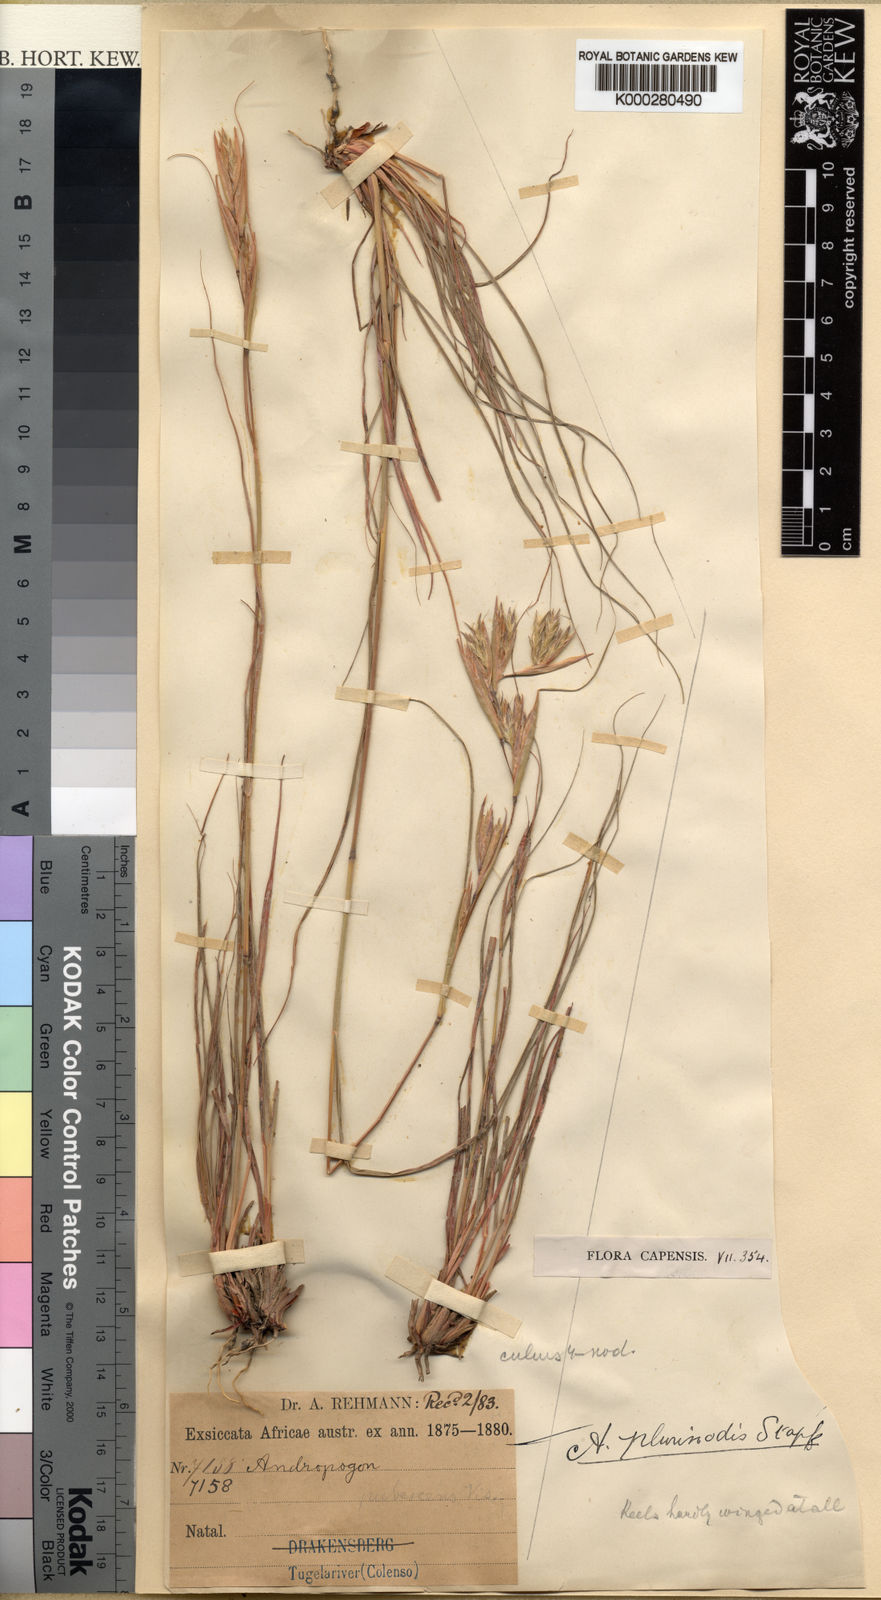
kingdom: Plantae
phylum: Tracheophyta
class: Liliopsida
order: Poales
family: Poaceae
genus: Cymbopogon
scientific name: Cymbopogon pospischilii
